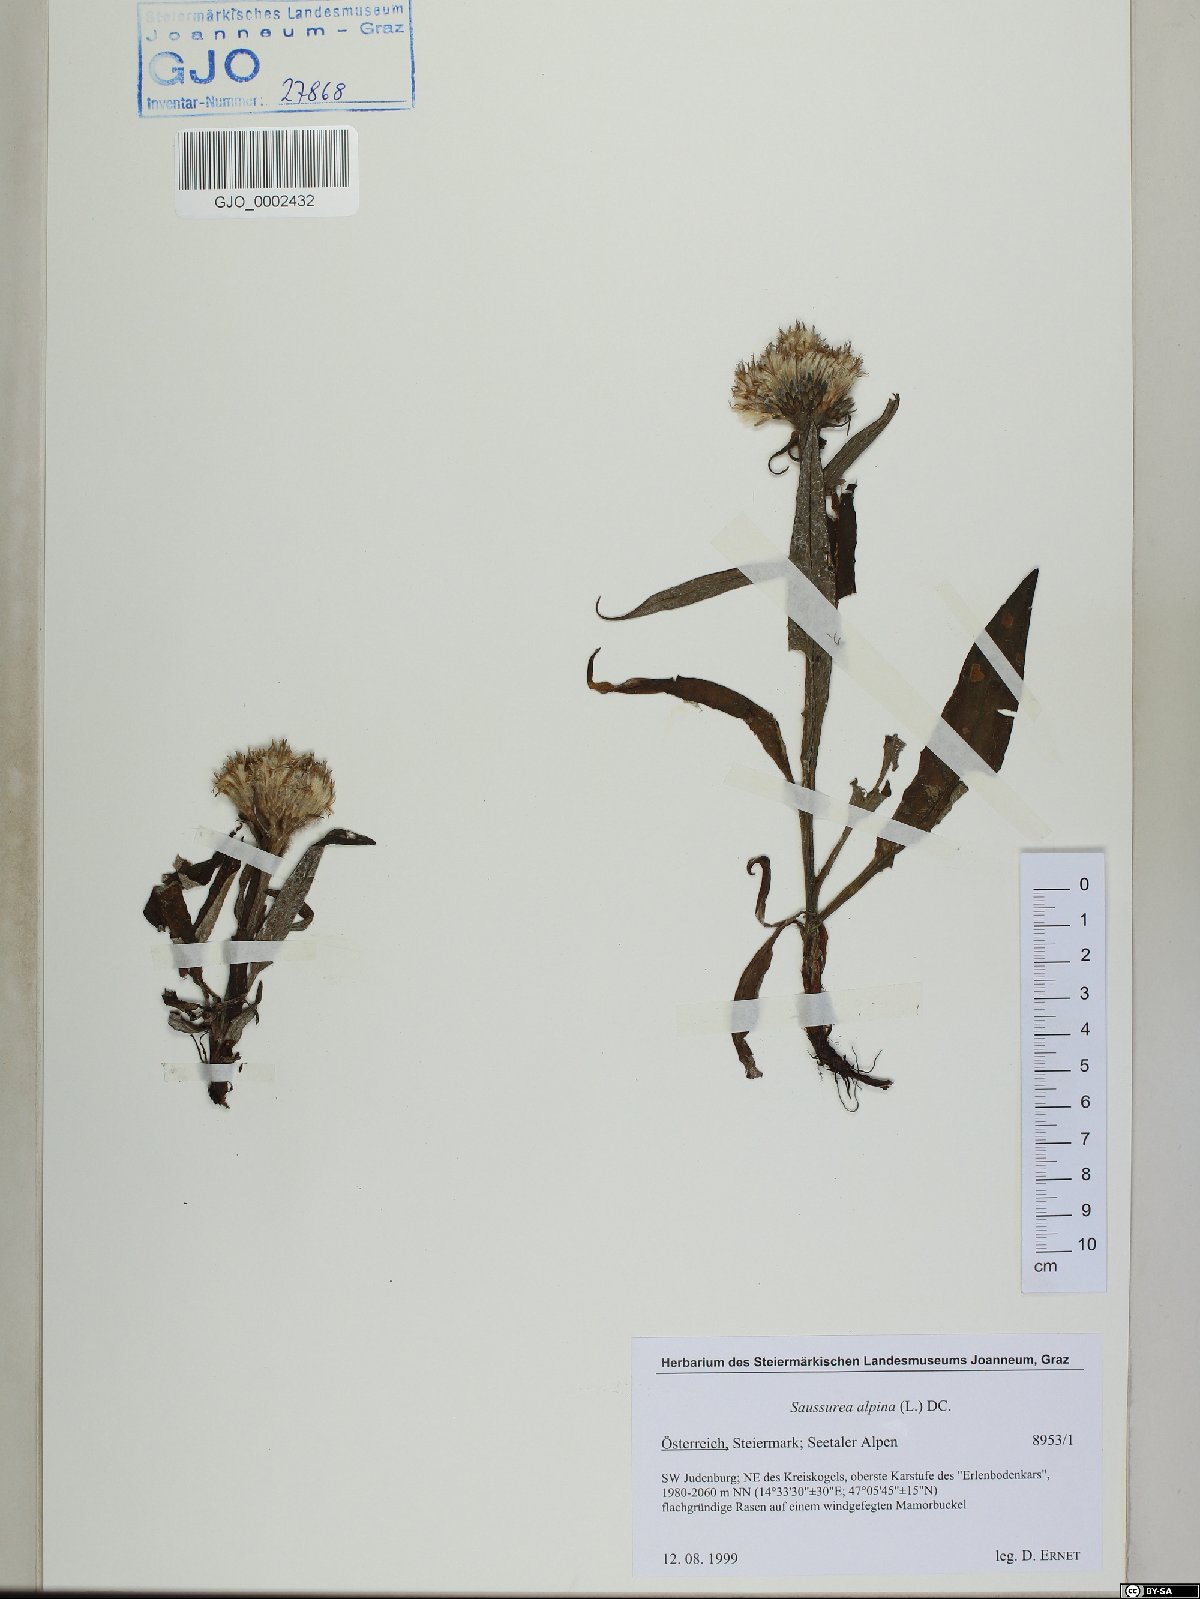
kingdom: Plantae
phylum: Tracheophyta
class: Magnoliopsida
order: Asterales
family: Asteraceae
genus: Saussurea
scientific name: Saussurea alpina
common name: Alpine saw-wort
